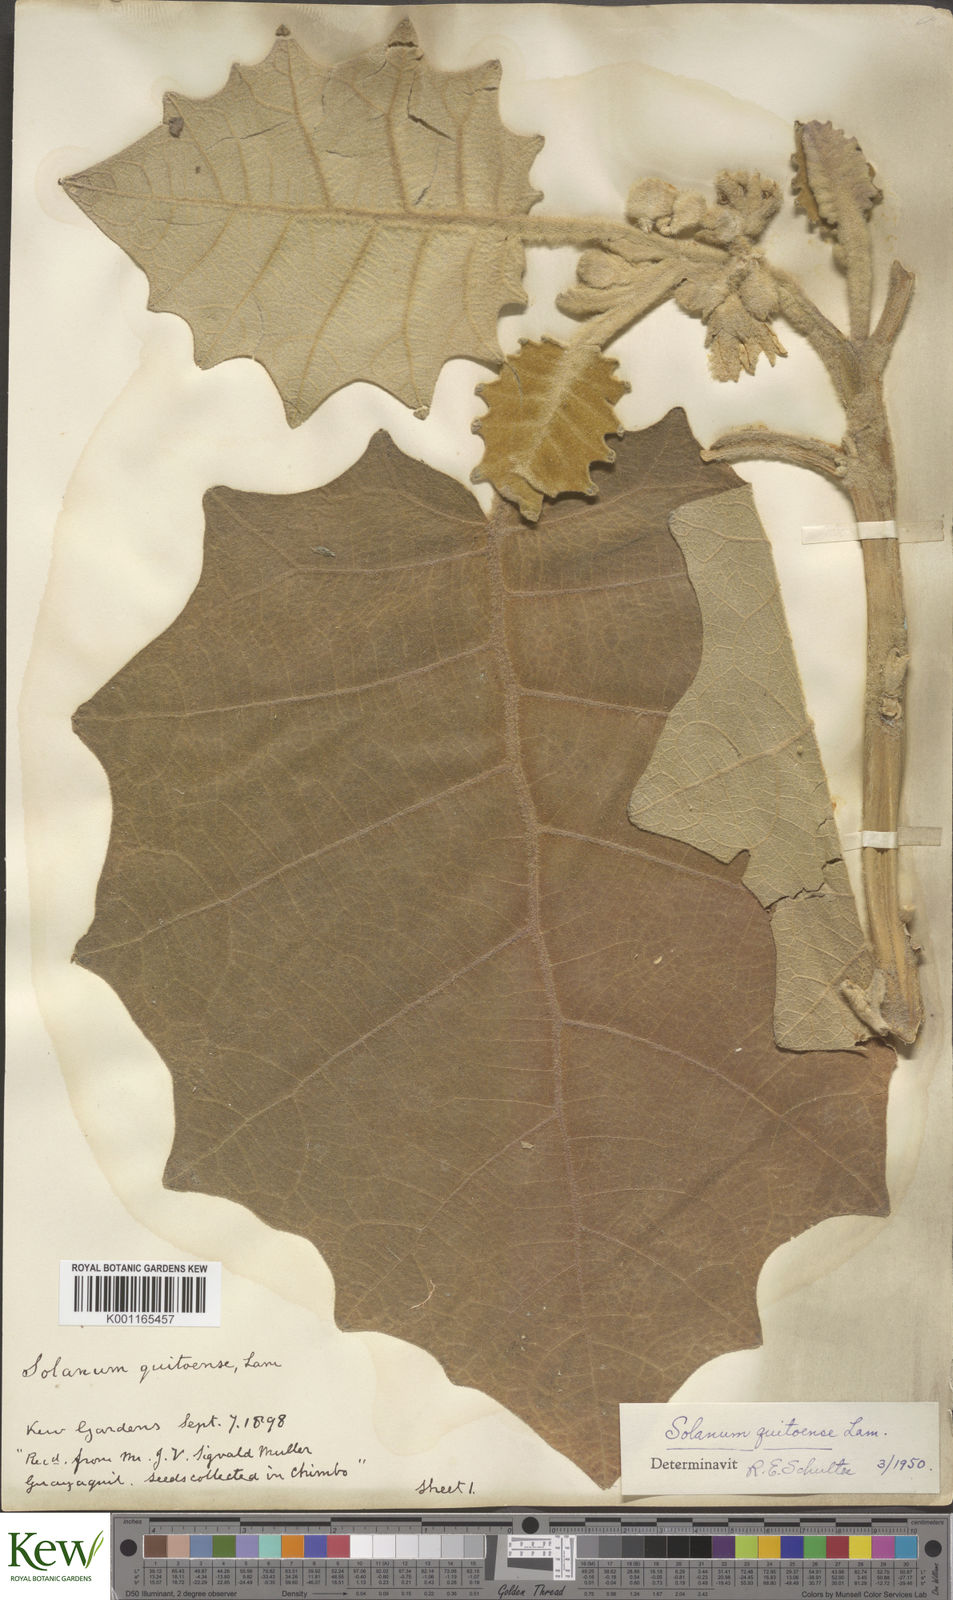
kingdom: Plantae
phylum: Tracheophyta
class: Magnoliopsida
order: Solanales
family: Solanaceae
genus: Solanum
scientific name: Solanum quitoense
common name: Quito-orange
